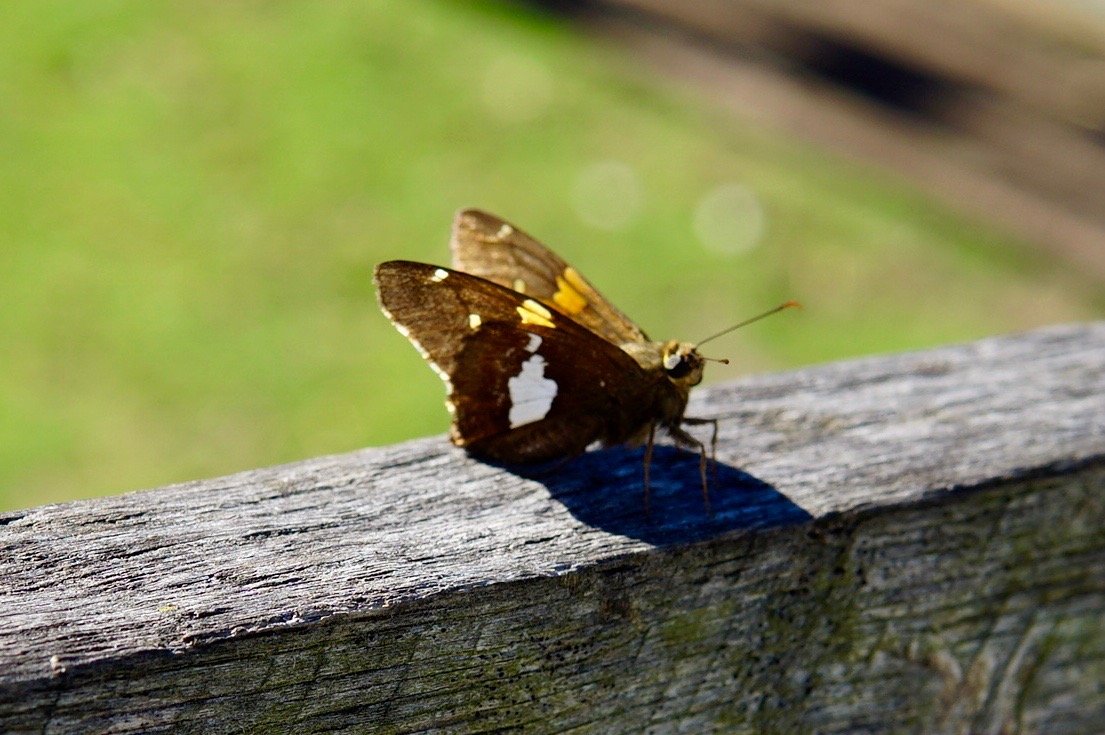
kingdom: Animalia
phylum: Arthropoda
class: Insecta
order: Lepidoptera
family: Hesperiidae
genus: Epargyreus
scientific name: Epargyreus clarus
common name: Silver-spotted Skipper
